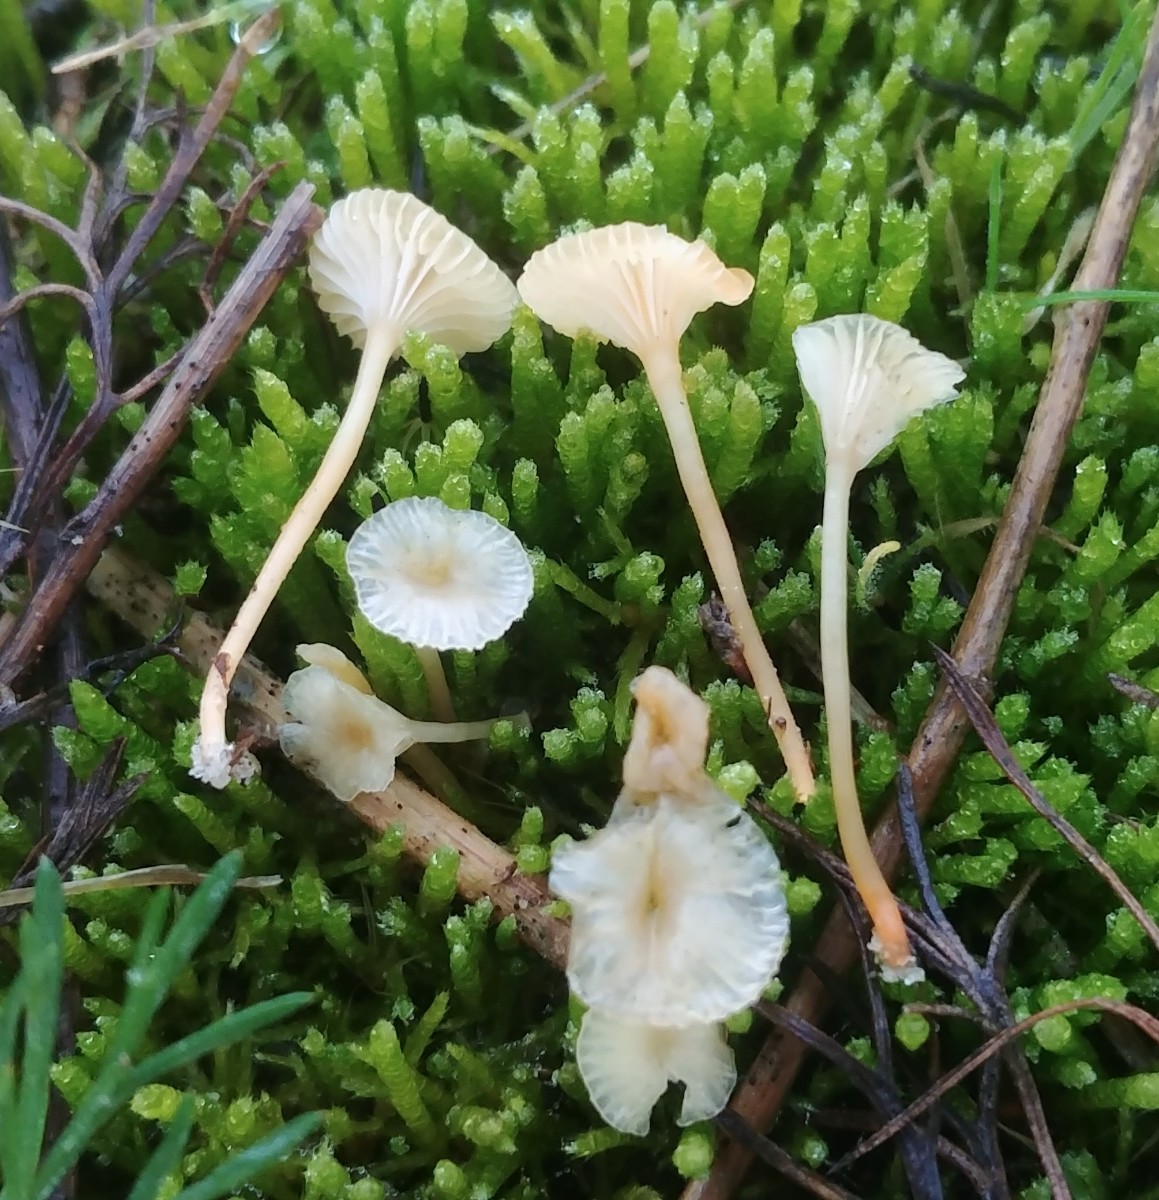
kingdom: Fungi
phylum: Basidiomycota
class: Agaricomycetes
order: Hymenochaetales
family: Rickenellaceae
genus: Rickenella
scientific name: Rickenella fibula
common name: orange mosnavlehat
